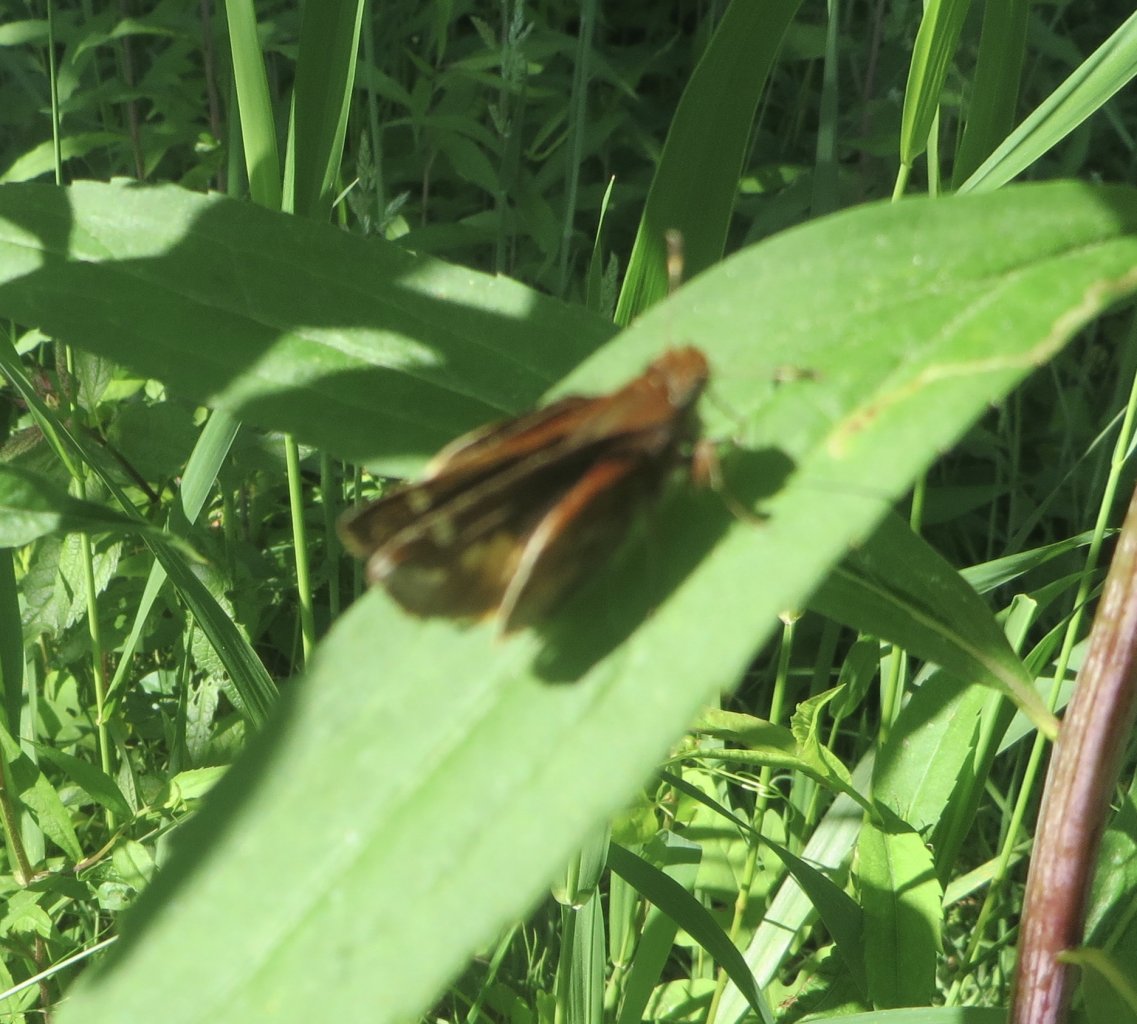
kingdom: Animalia
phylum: Arthropoda
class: Insecta
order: Lepidoptera
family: Hesperiidae
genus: Lon
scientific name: Lon zabulon
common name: Zabulon Skipper
